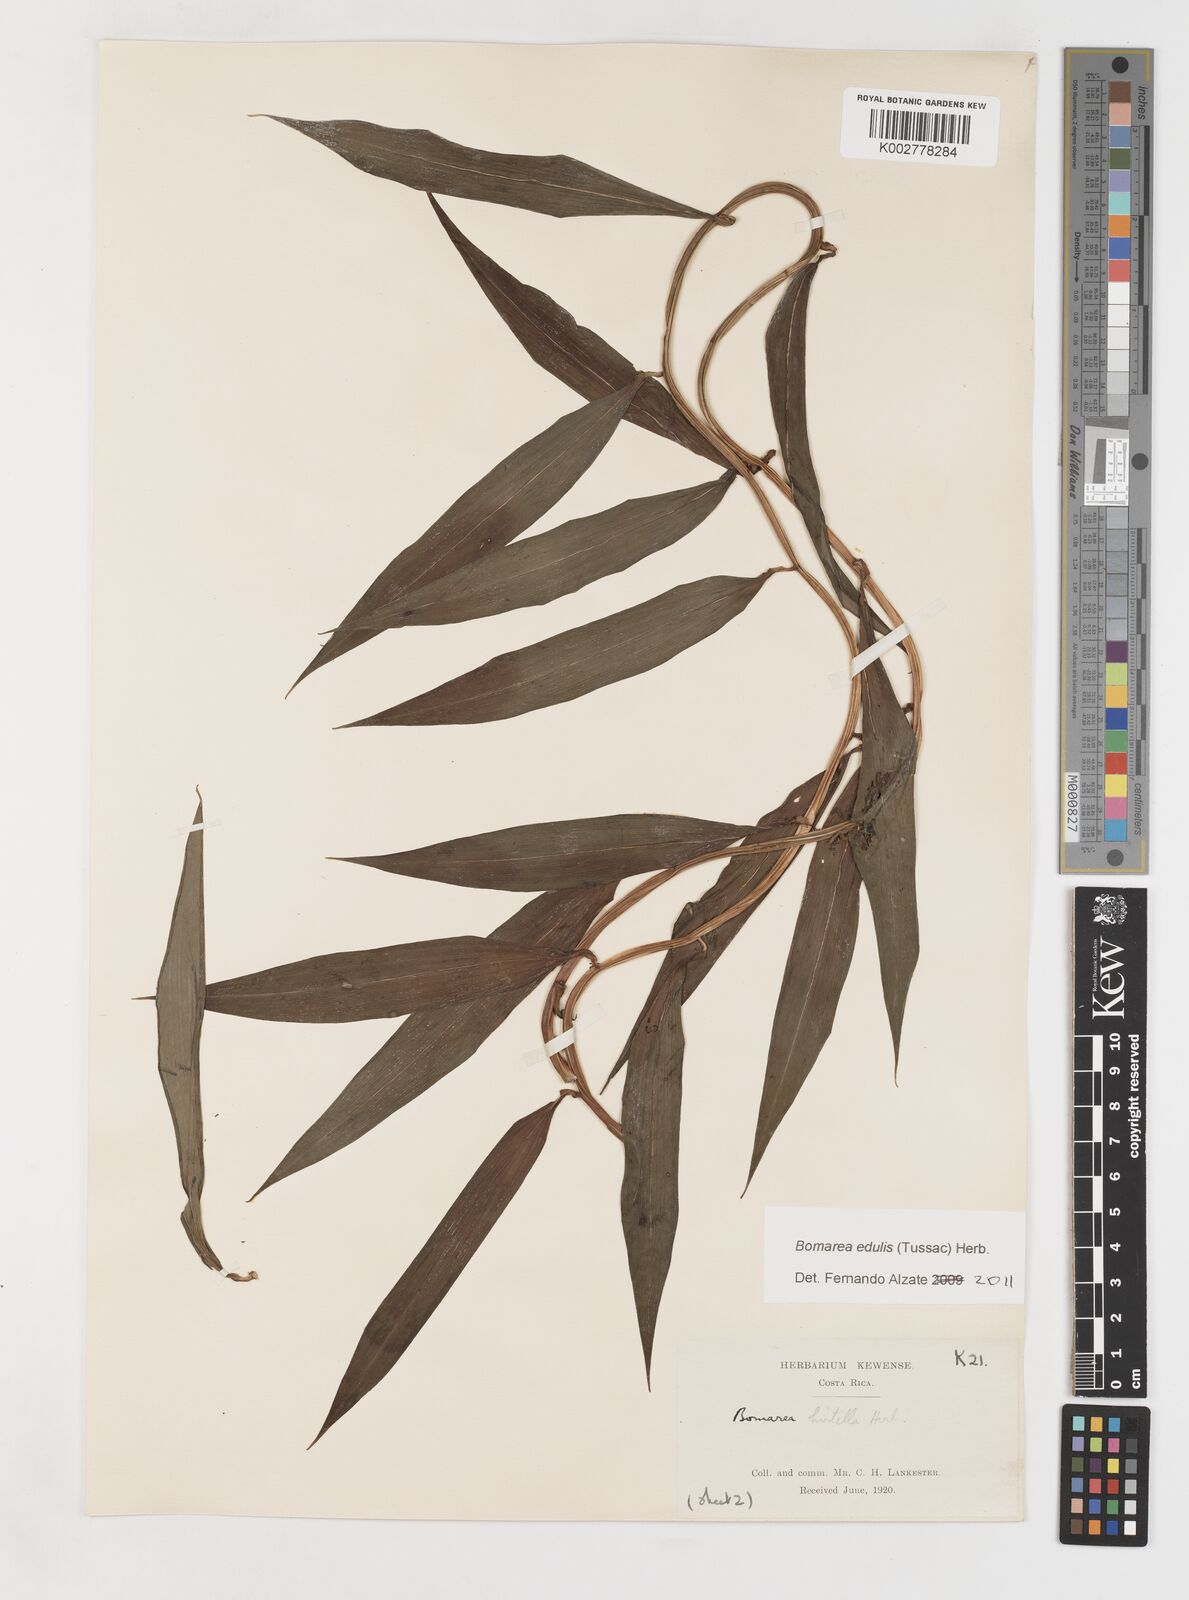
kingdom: Plantae
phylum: Tracheophyta
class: Liliopsida
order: Liliales
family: Alstroemeriaceae
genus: Bomarea
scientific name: Bomarea edulis
